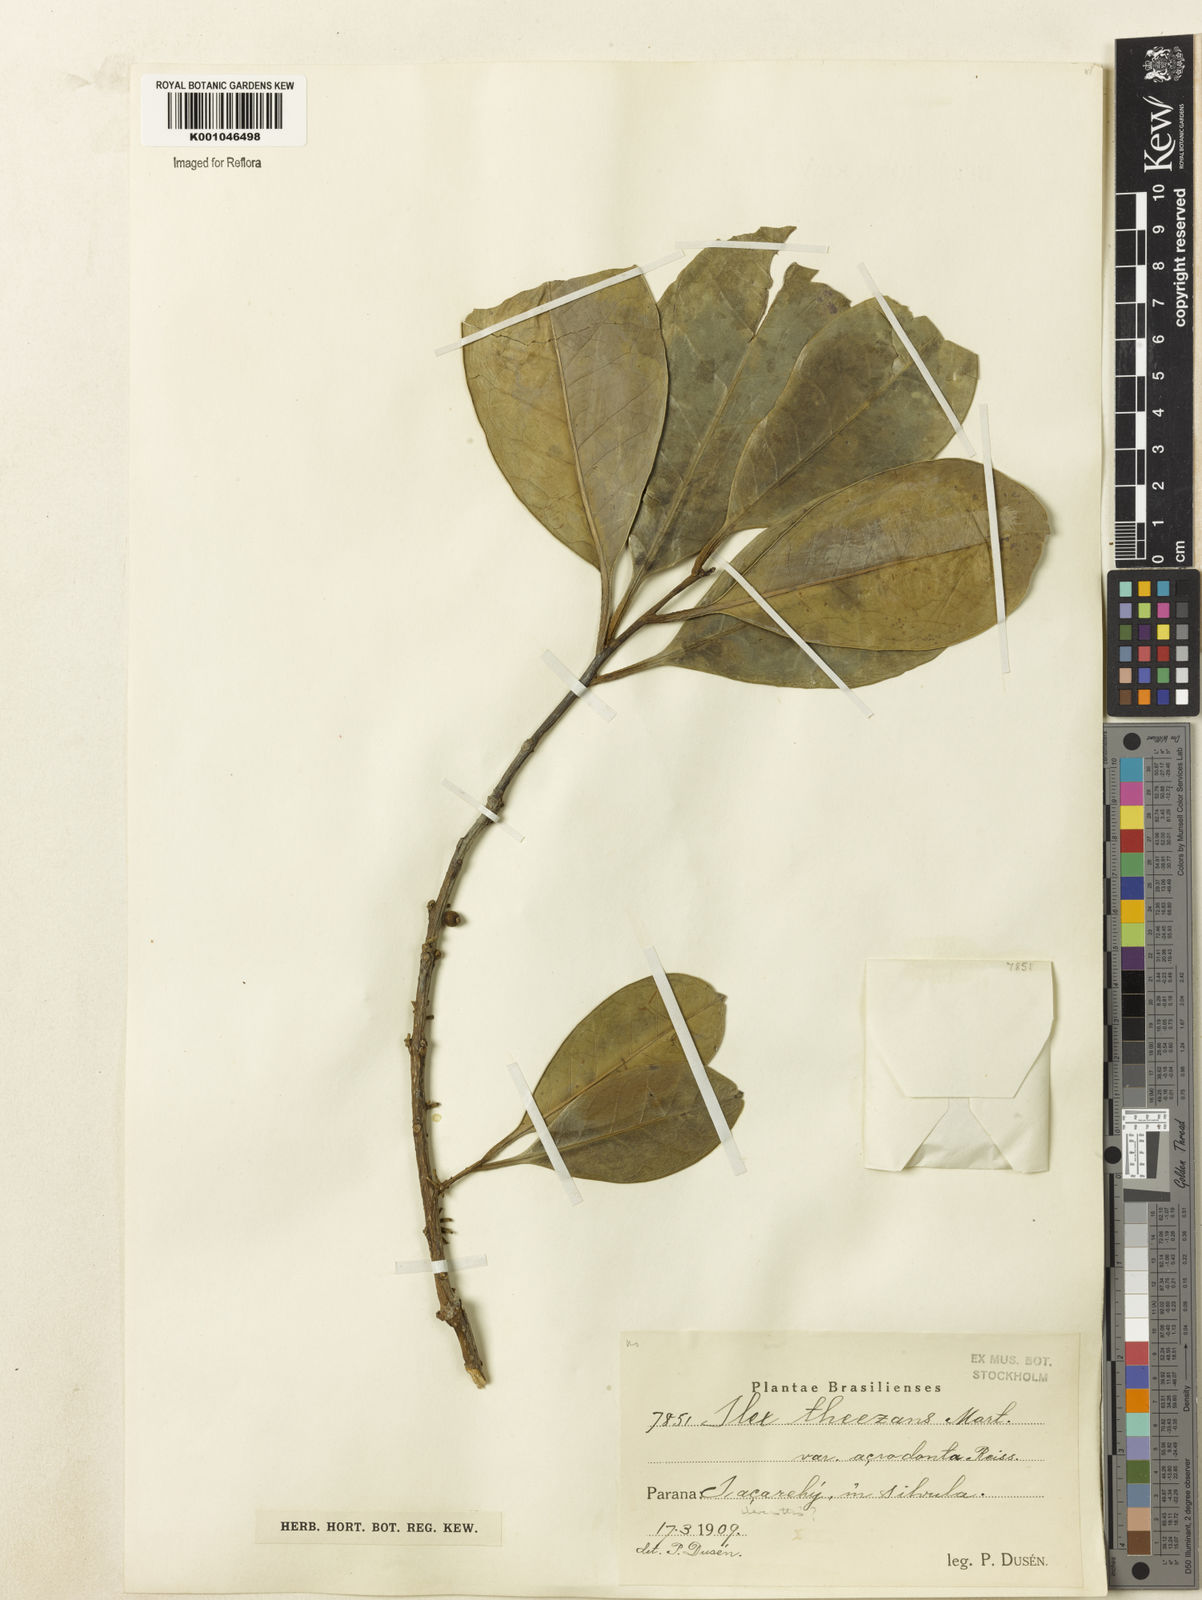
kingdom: Plantae
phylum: Tracheophyta
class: Magnoliopsida
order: Aquifoliales
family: Aquifoliaceae
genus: Ilex
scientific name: Ilex paraguariensis
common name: Paraguay tea
